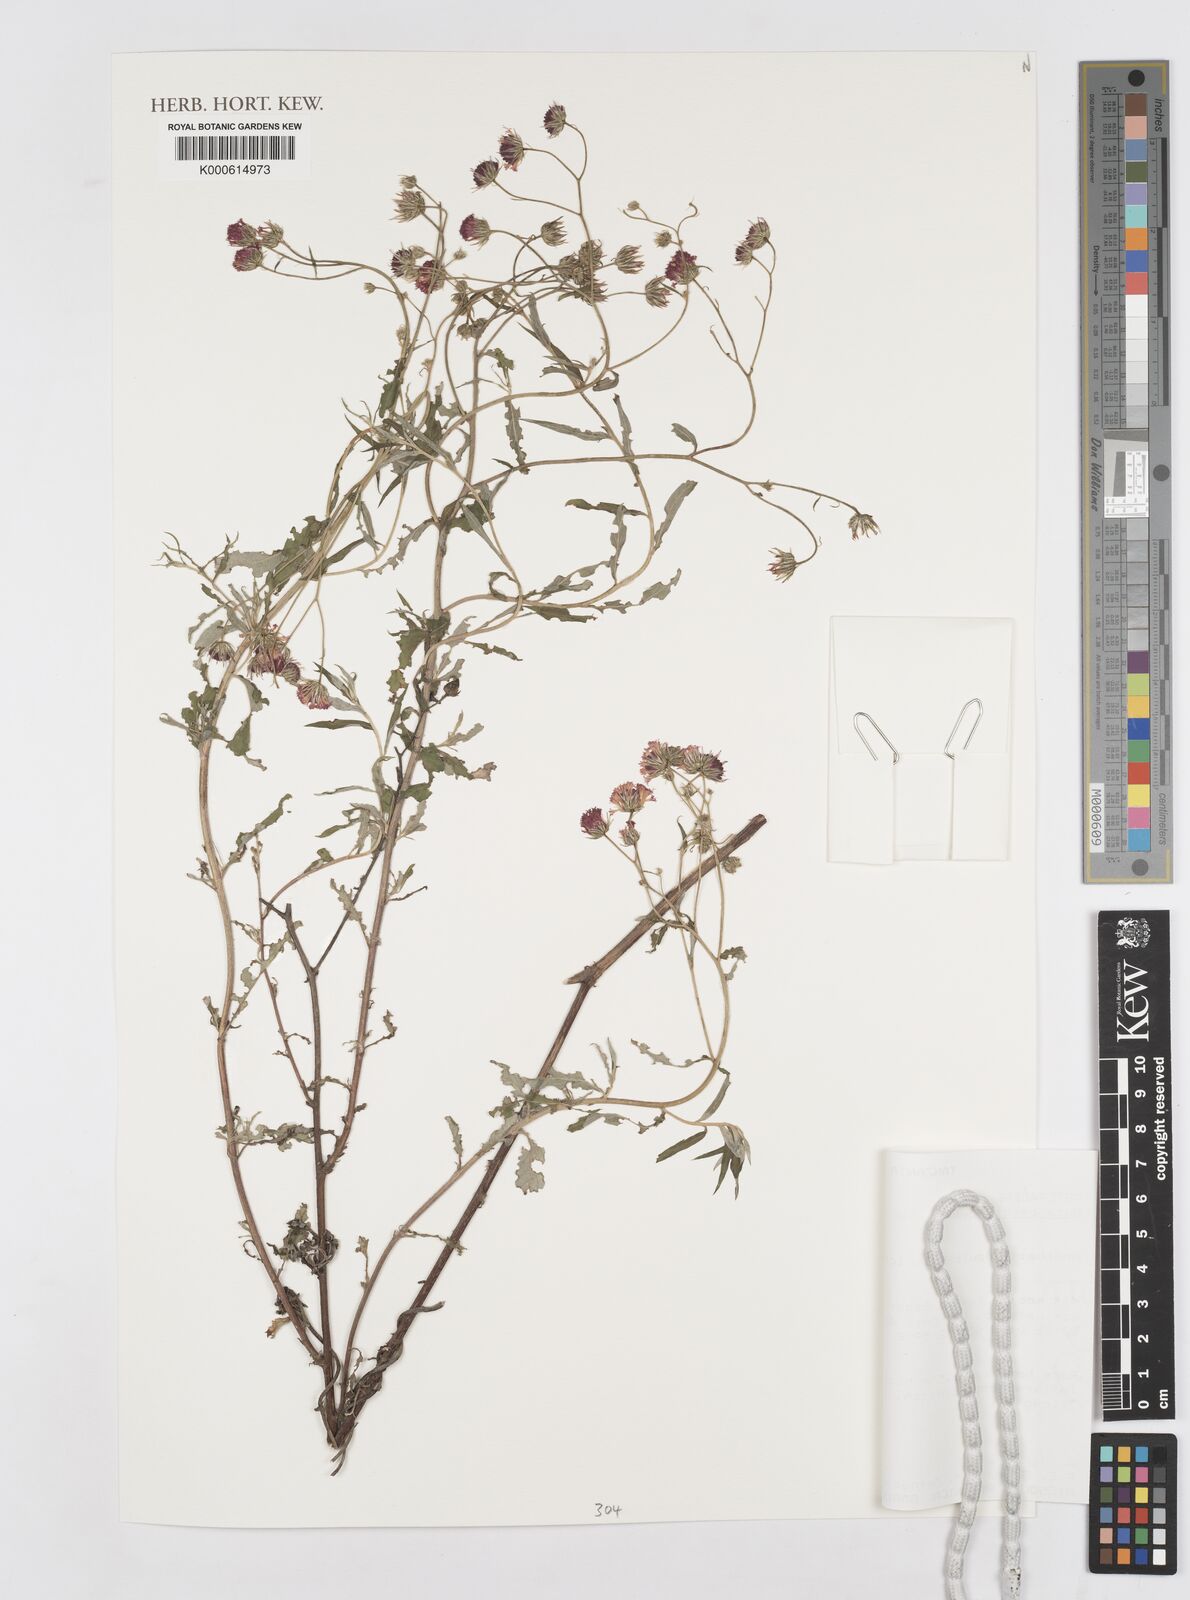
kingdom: Plantae
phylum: Tracheophyta
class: Magnoliopsida
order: Asterales
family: Asteraceae
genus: Gutenbergia
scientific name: Gutenbergia cordifolia
